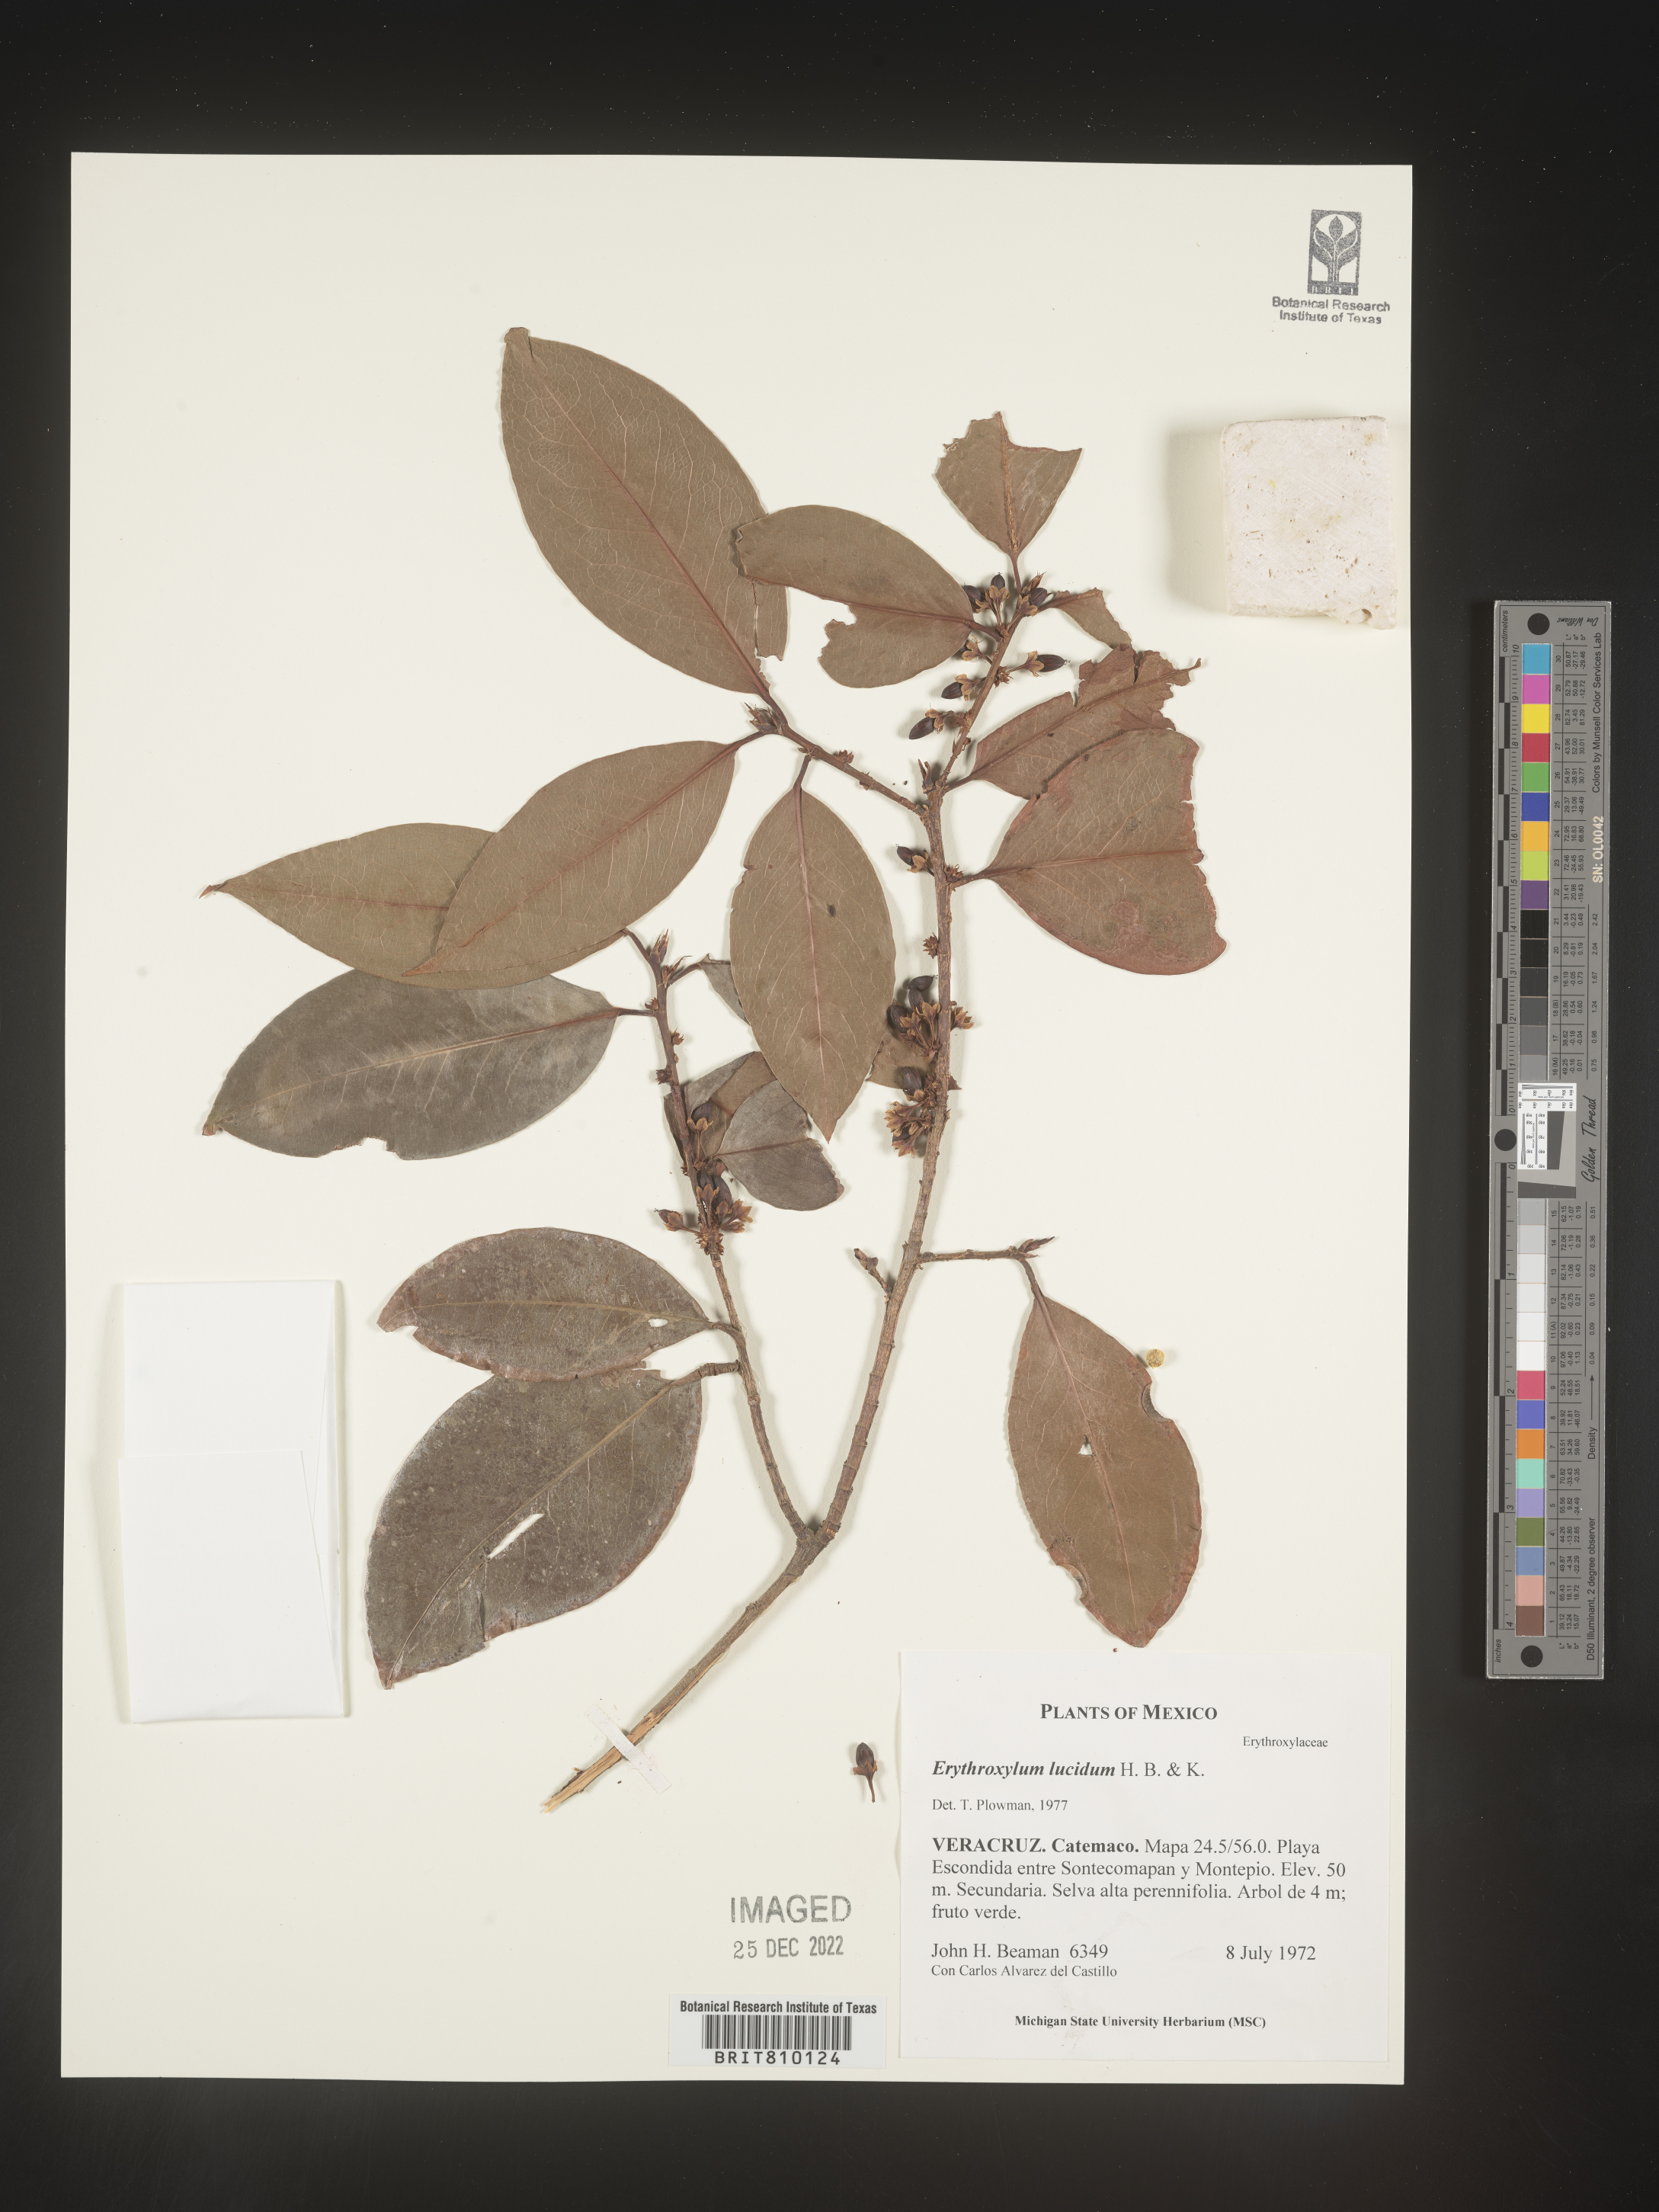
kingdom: Plantae
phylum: Tracheophyta
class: Magnoliopsida
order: Malpighiales
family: Erythroxylaceae
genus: Erythroxylum
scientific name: Erythroxylum
